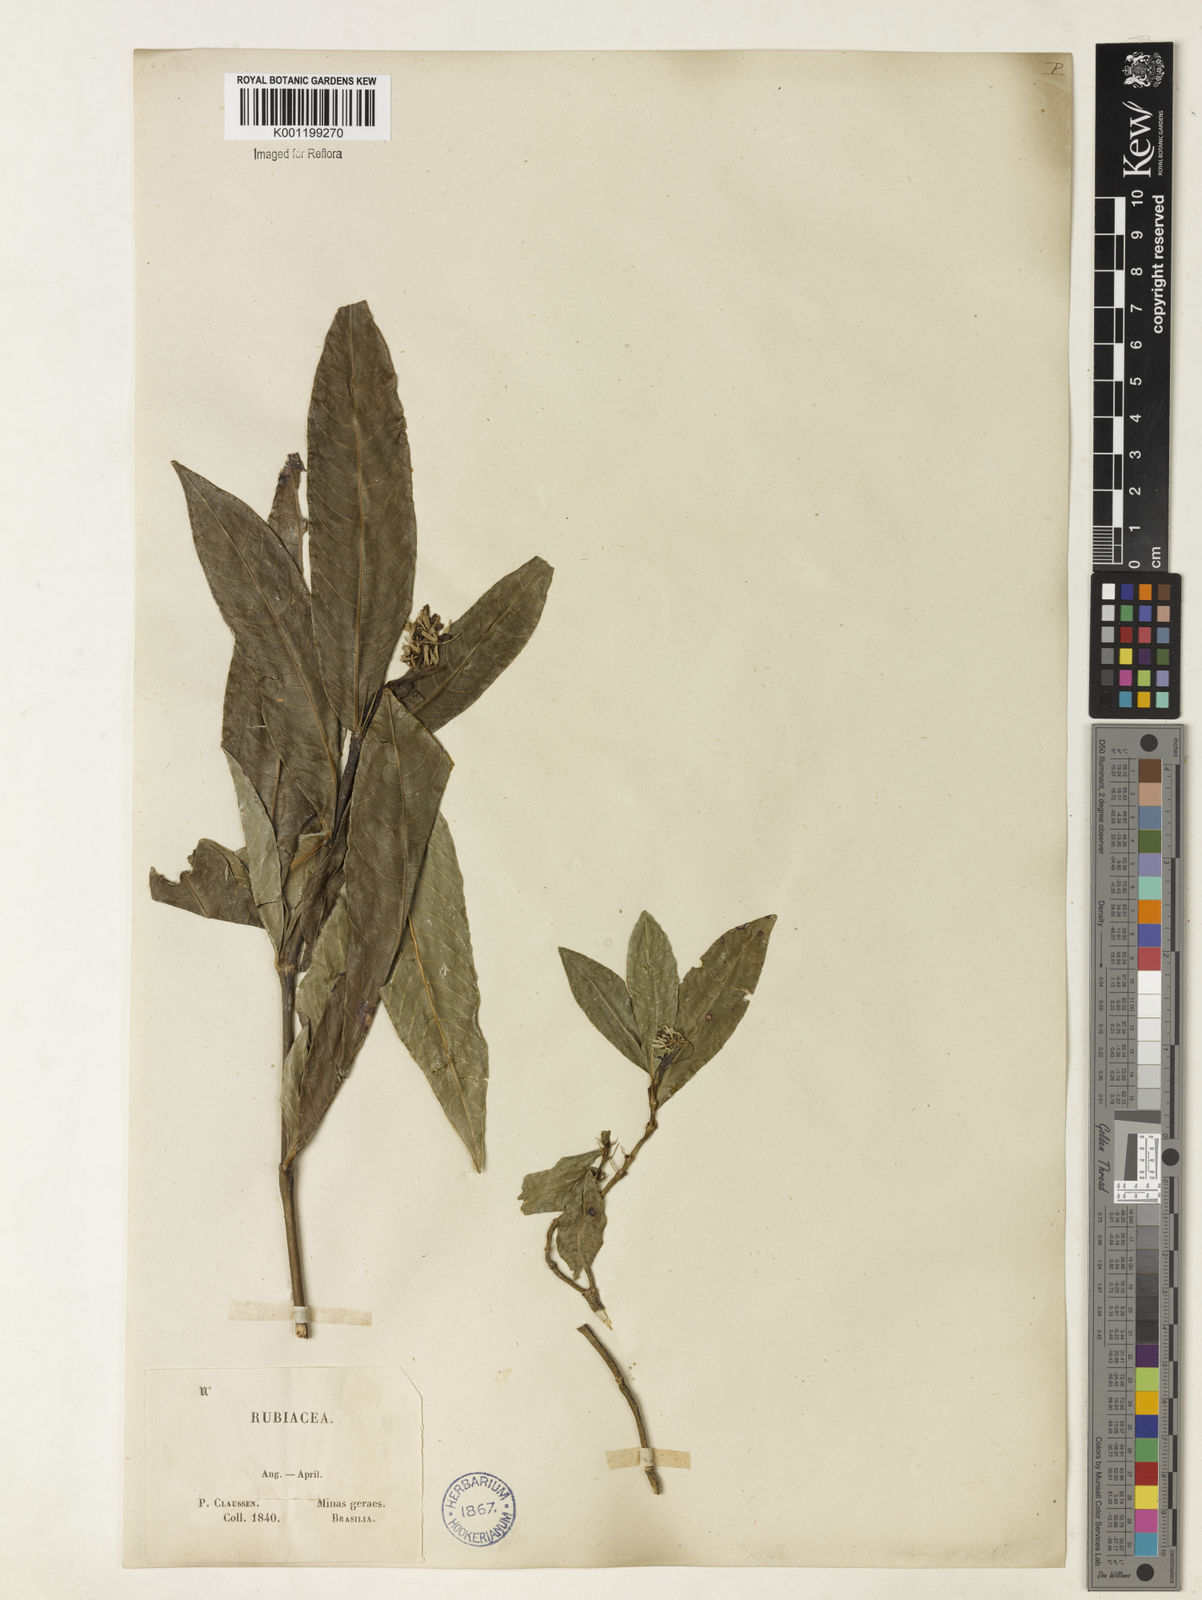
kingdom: Plantae
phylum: Tracheophyta
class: Magnoliopsida
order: Gentianales
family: Rubiaceae
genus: Palicourea
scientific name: Palicourea violacea
